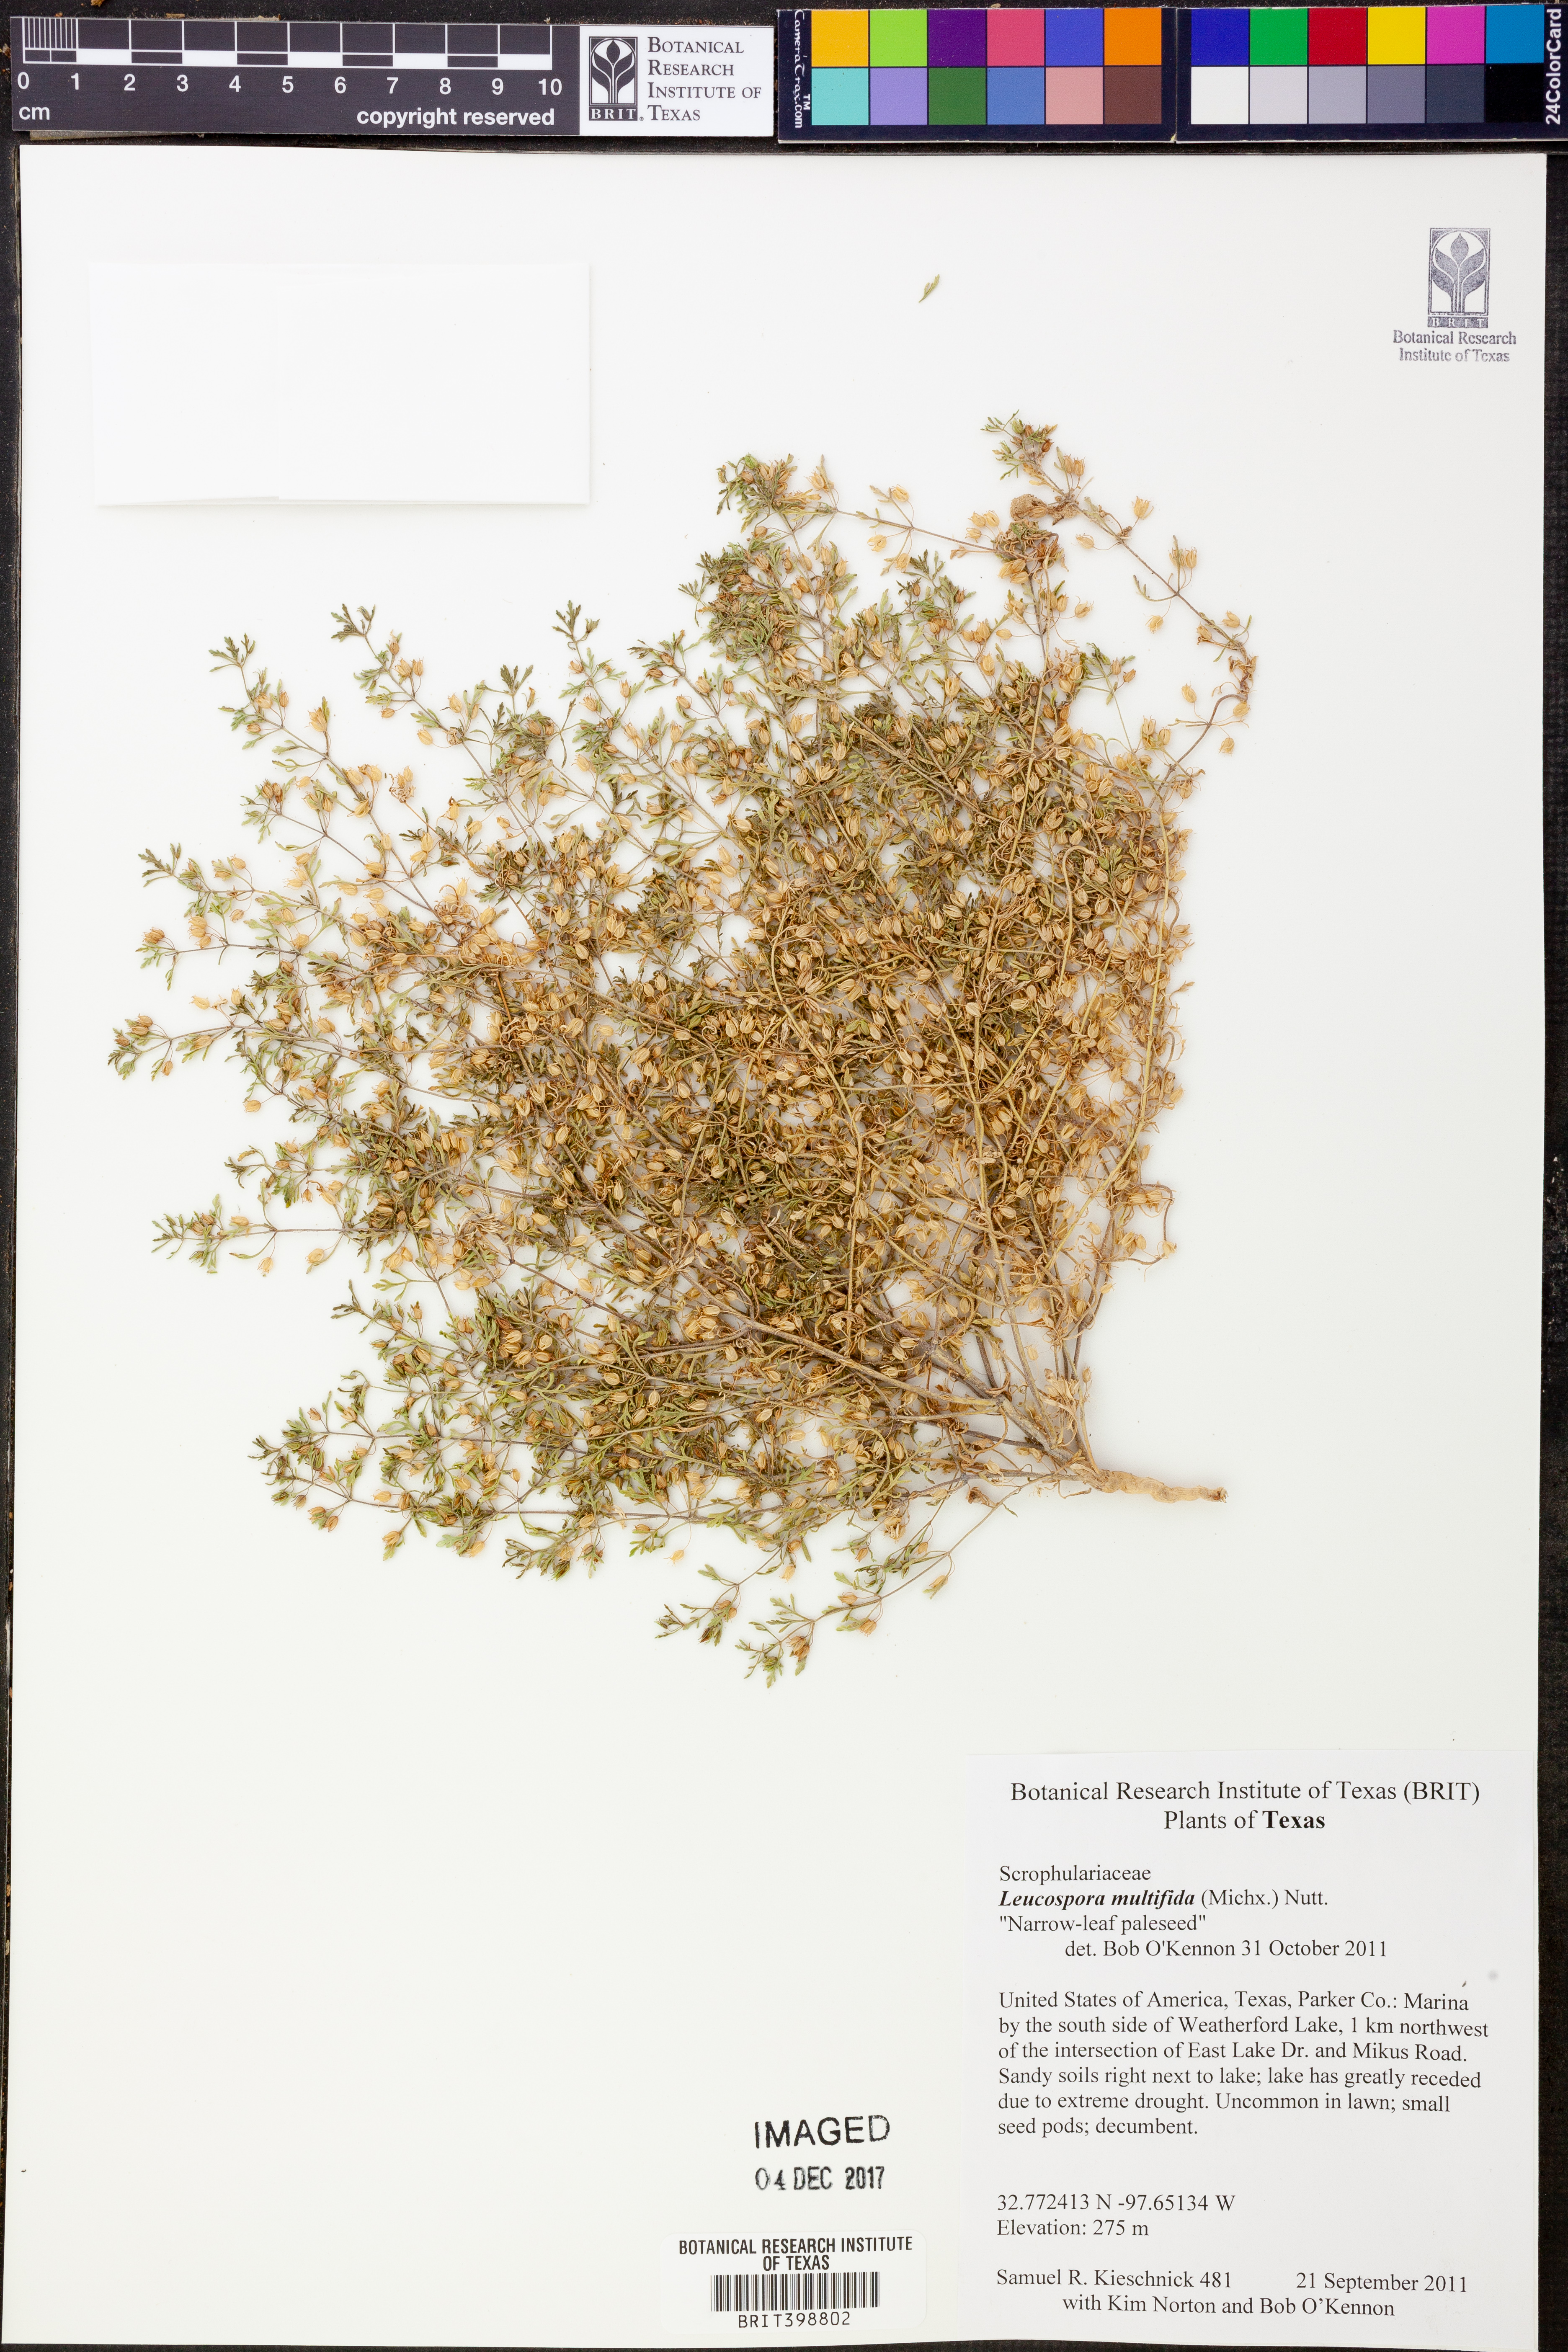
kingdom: Plantae
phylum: Tracheophyta
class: Magnoliopsida
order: Lamiales
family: Plantaginaceae
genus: Leucospora
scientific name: Leucospora multifida
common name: Narrow-leaf paleseed
